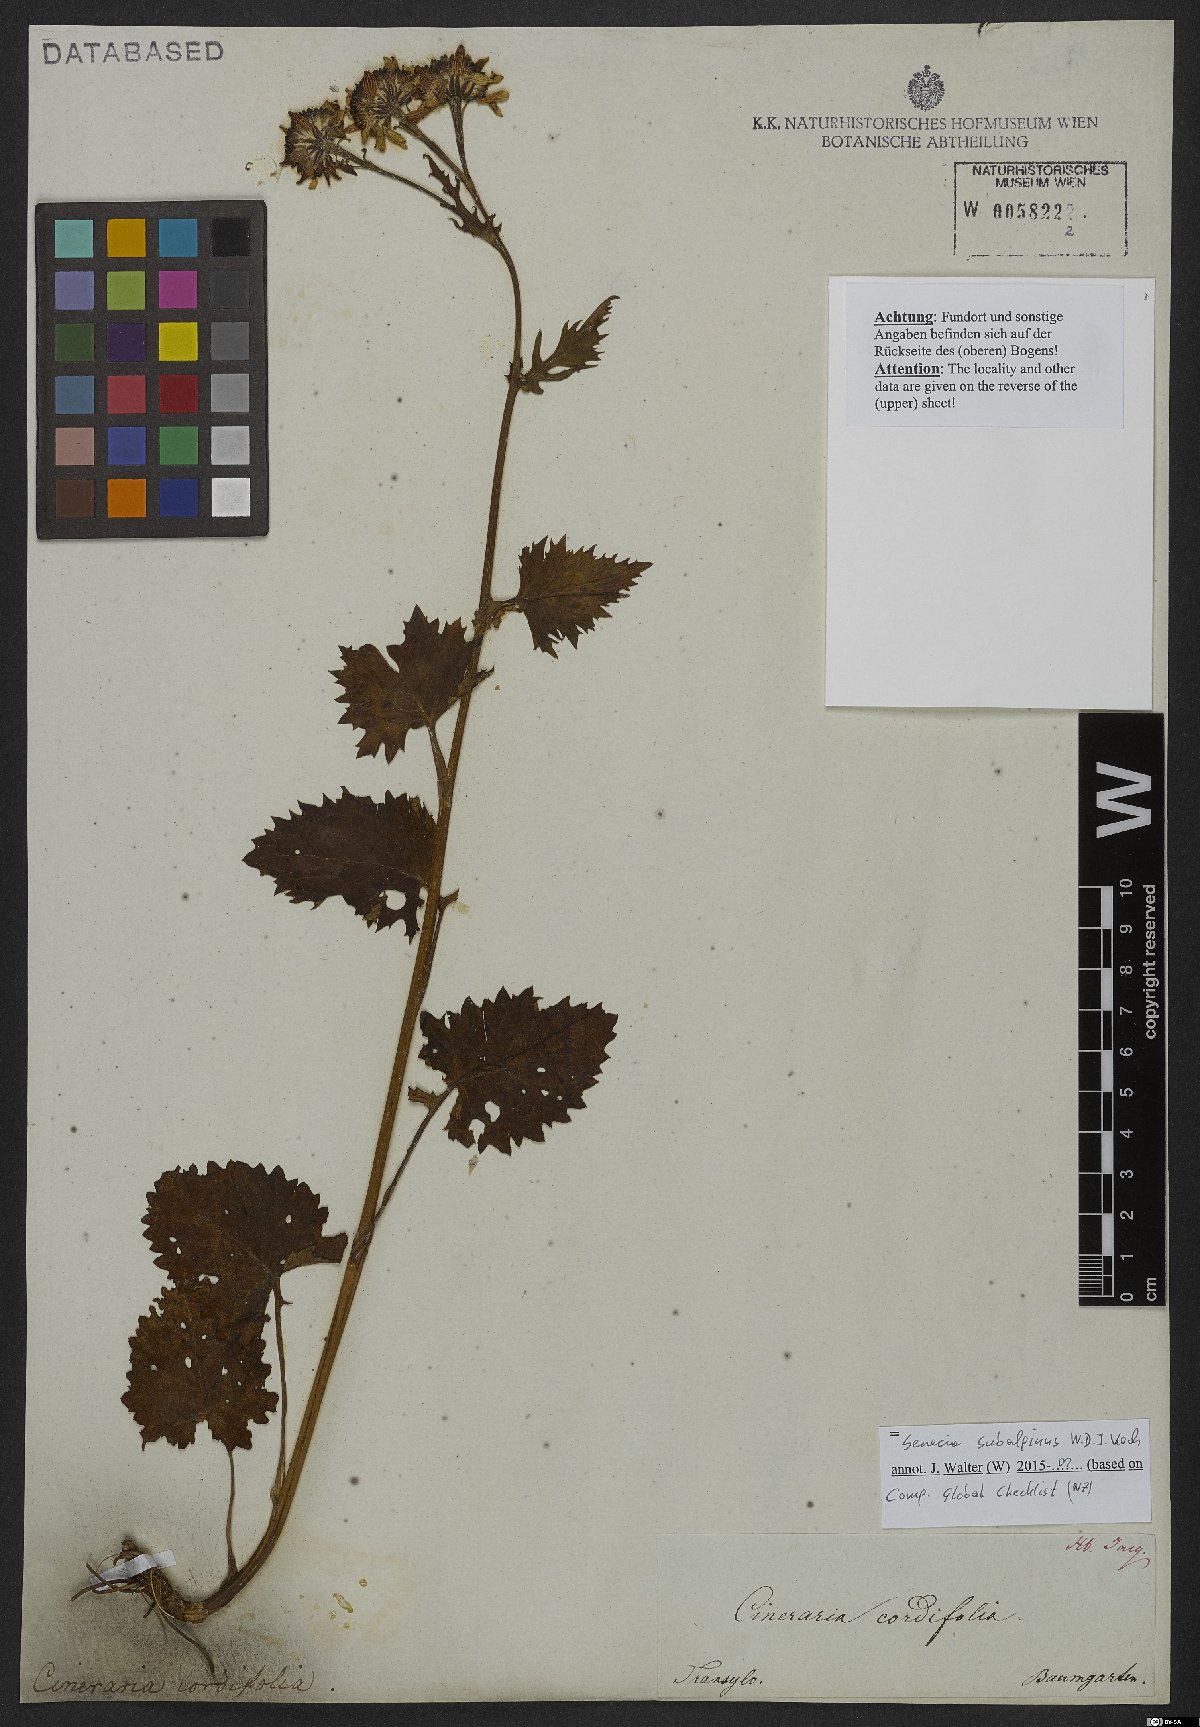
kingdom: Plantae
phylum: Tracheophyta
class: Magnoliopsida
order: Asterales
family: Asteraceae
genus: Jacobaea
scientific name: Jacobaea subalpina
